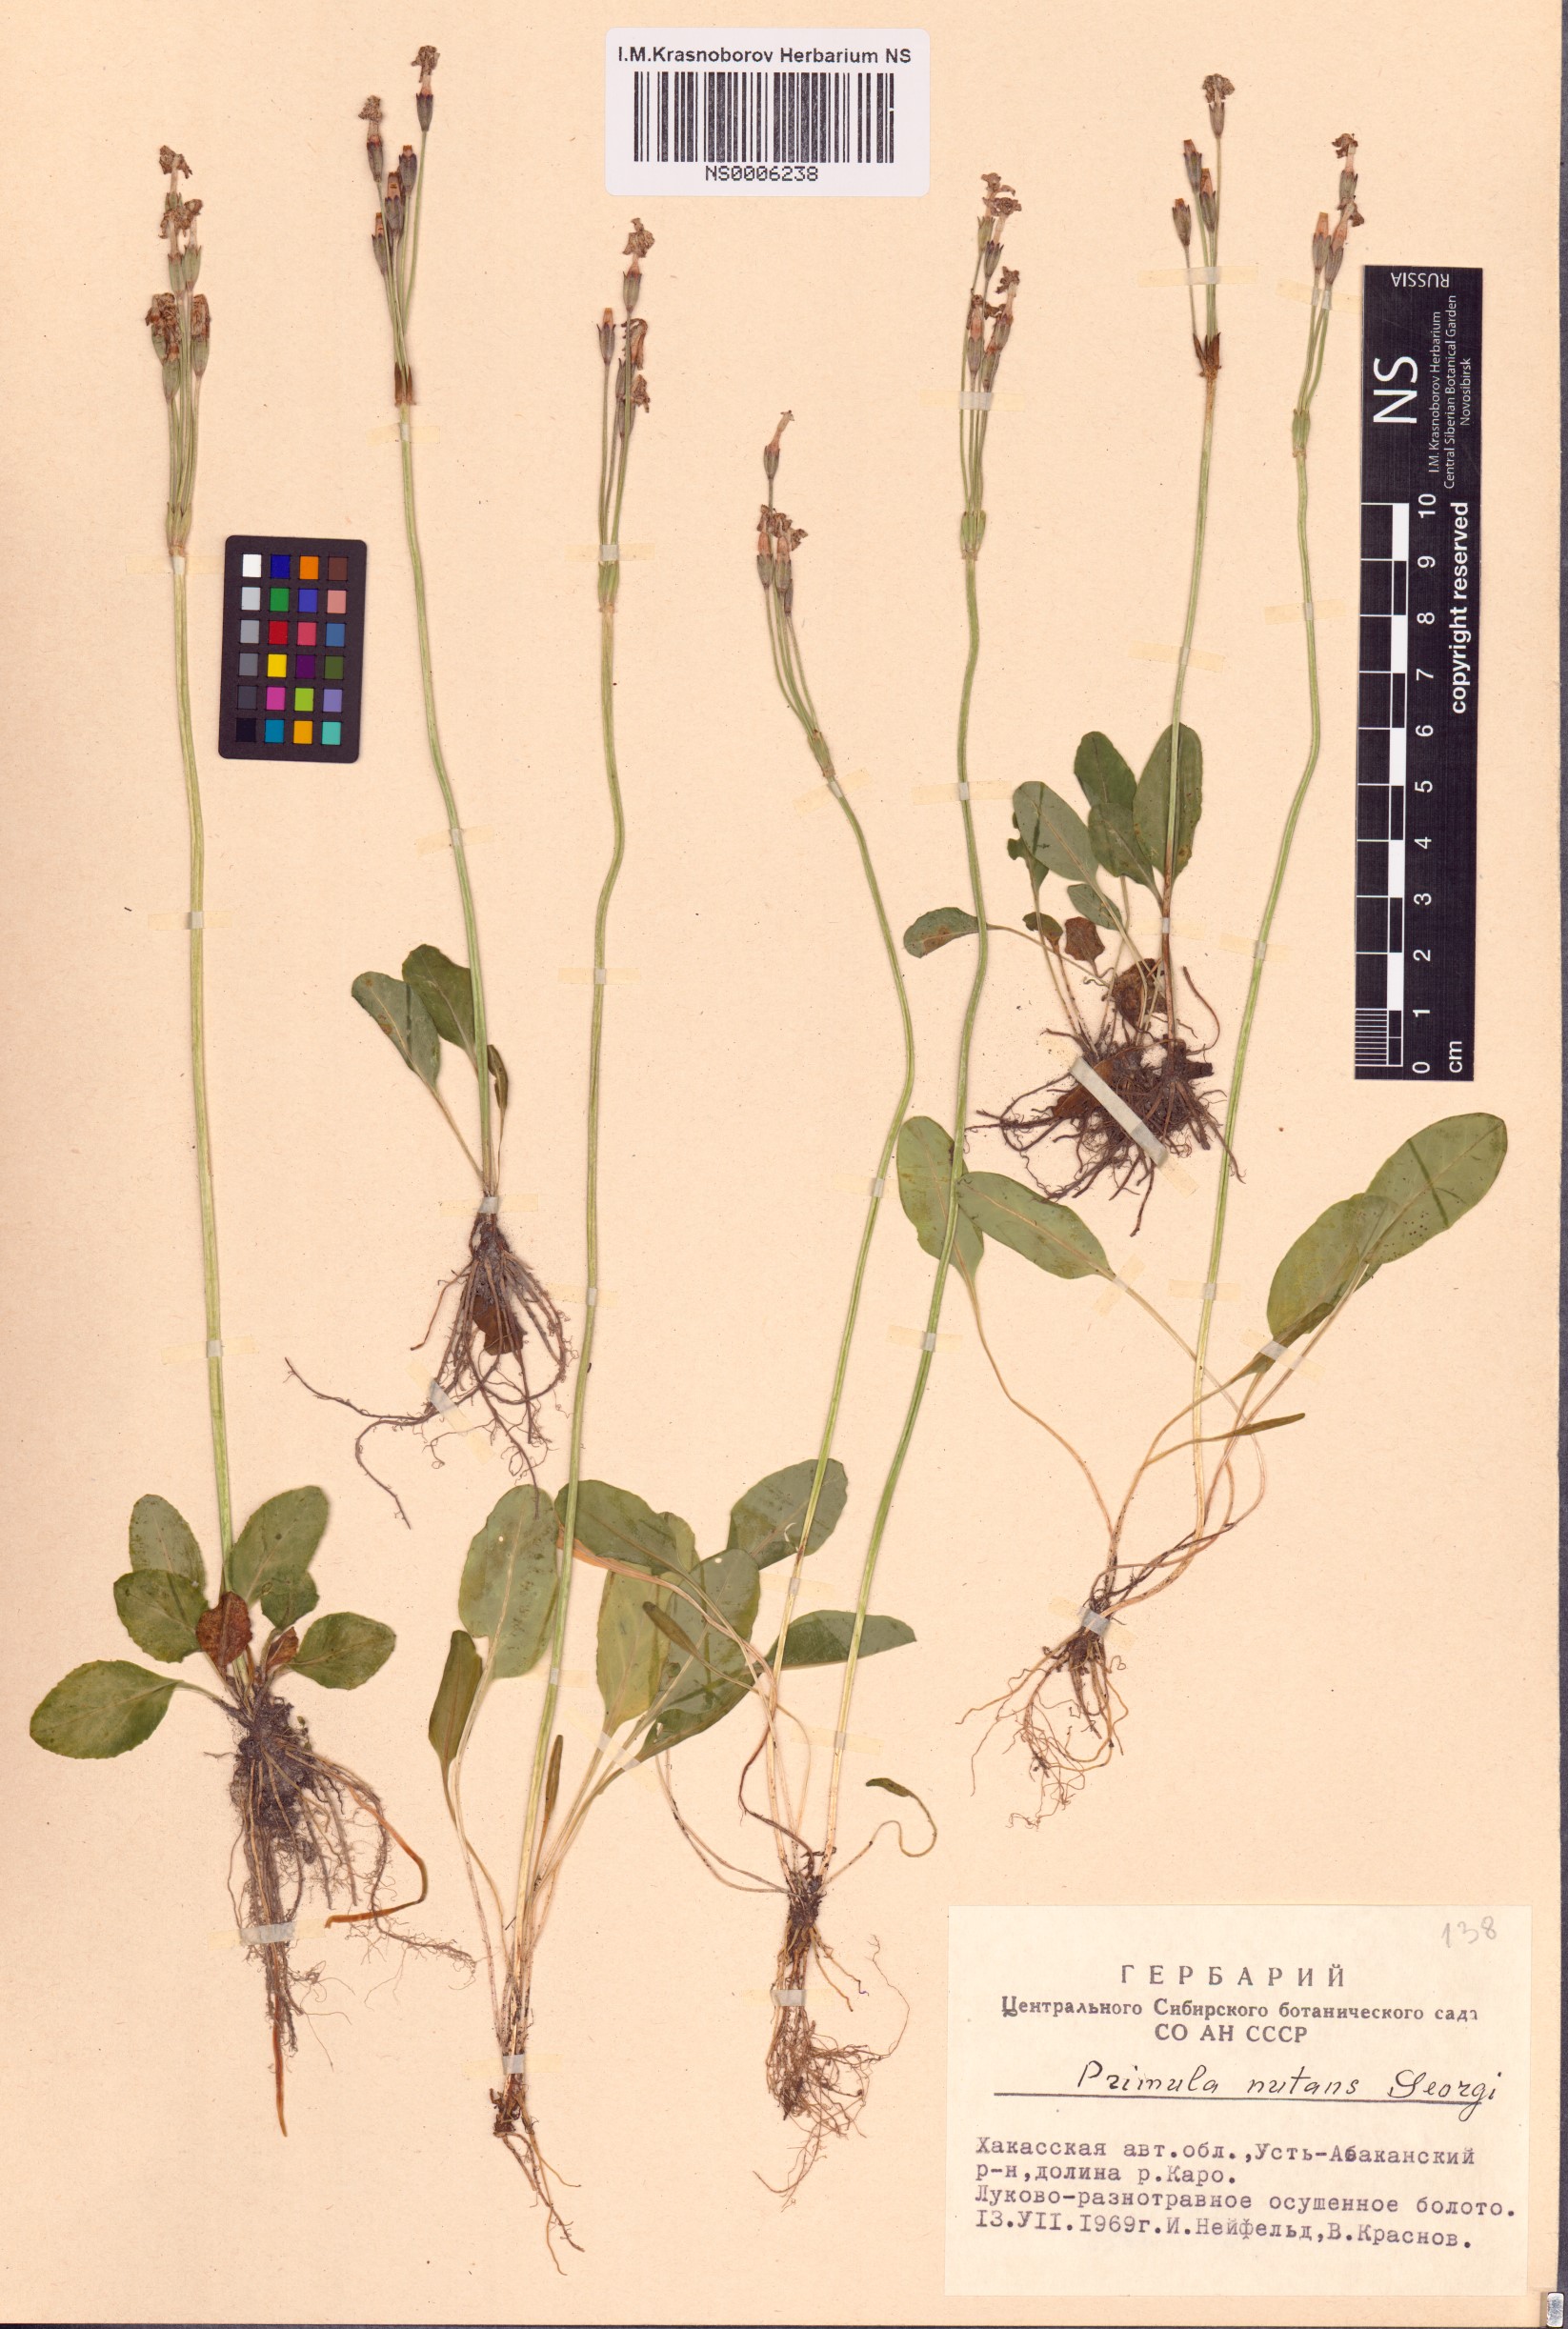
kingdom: Plantae
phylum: Tracheophyta
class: Magnoliopsida
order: Ericales
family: Primulaceae
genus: Primula
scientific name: Primula nutans
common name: Siberian primrose
